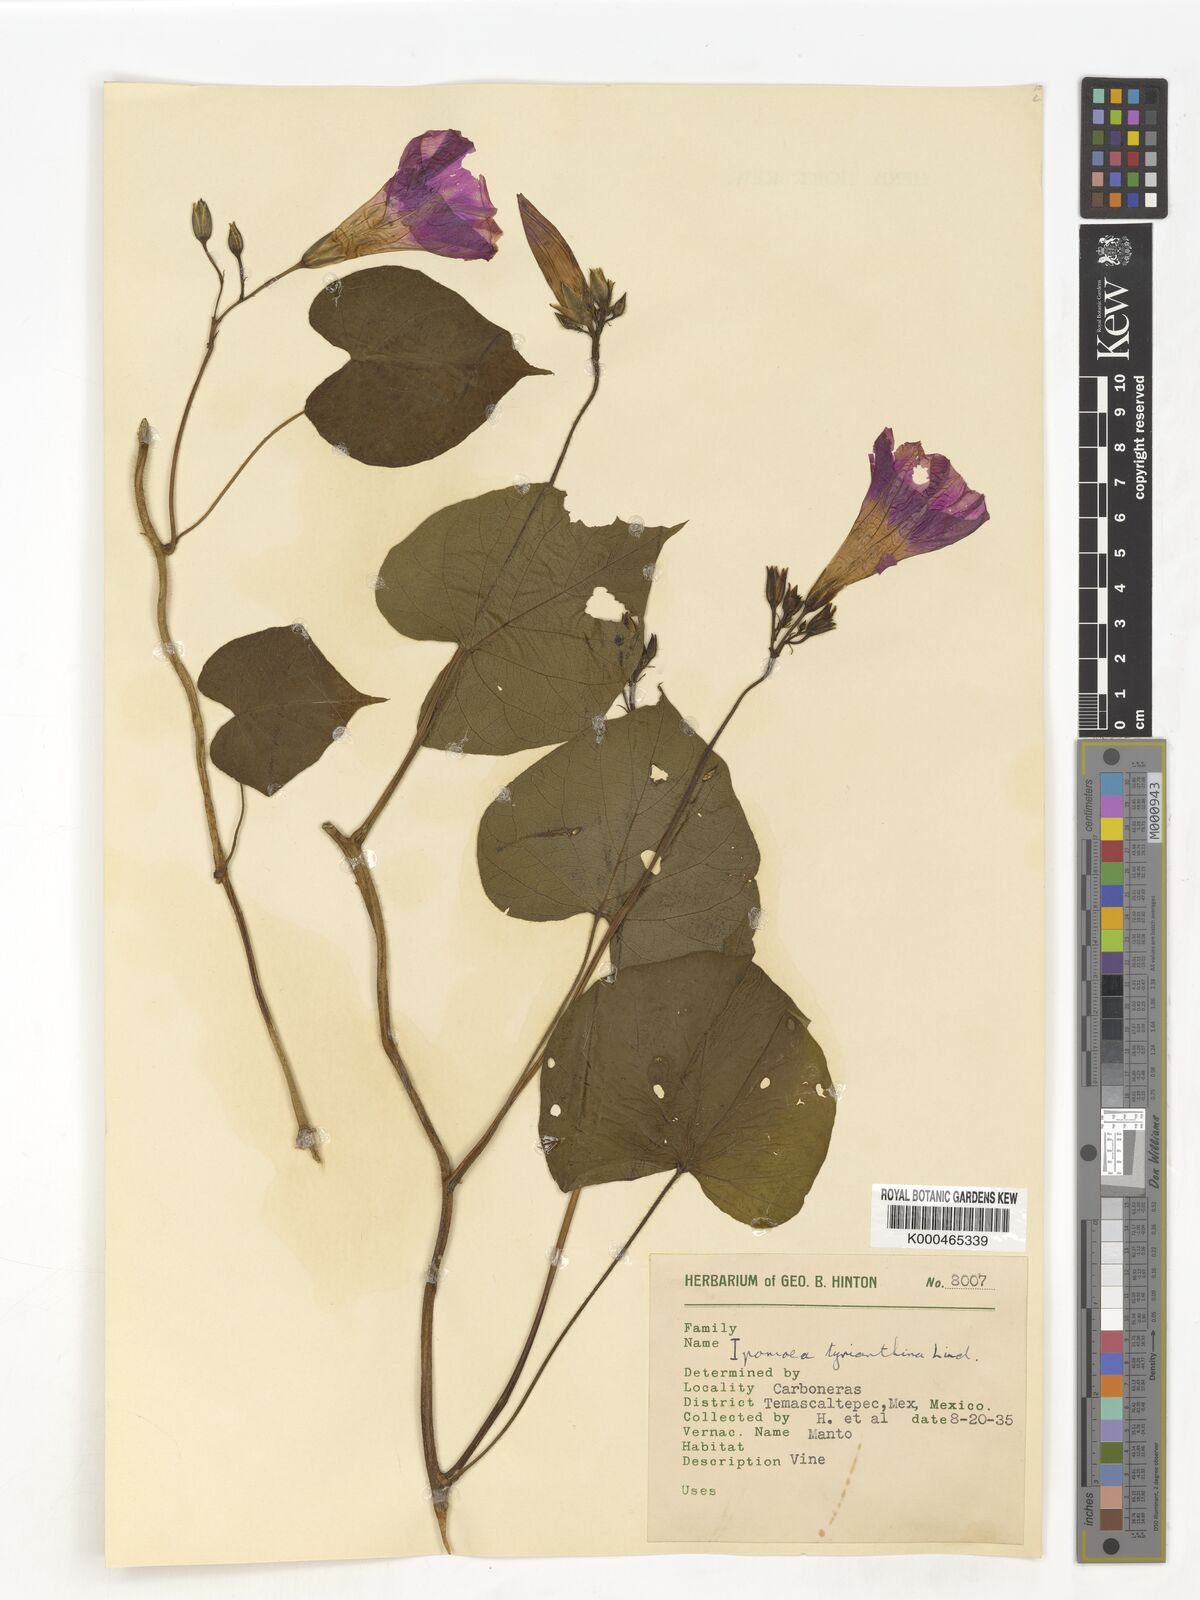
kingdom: Plantae
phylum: Tracheophyta
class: Magnoliopsida
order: Solanales
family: Convolvulaceae
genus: Ipomoea
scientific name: Ipomoea orizabensis
